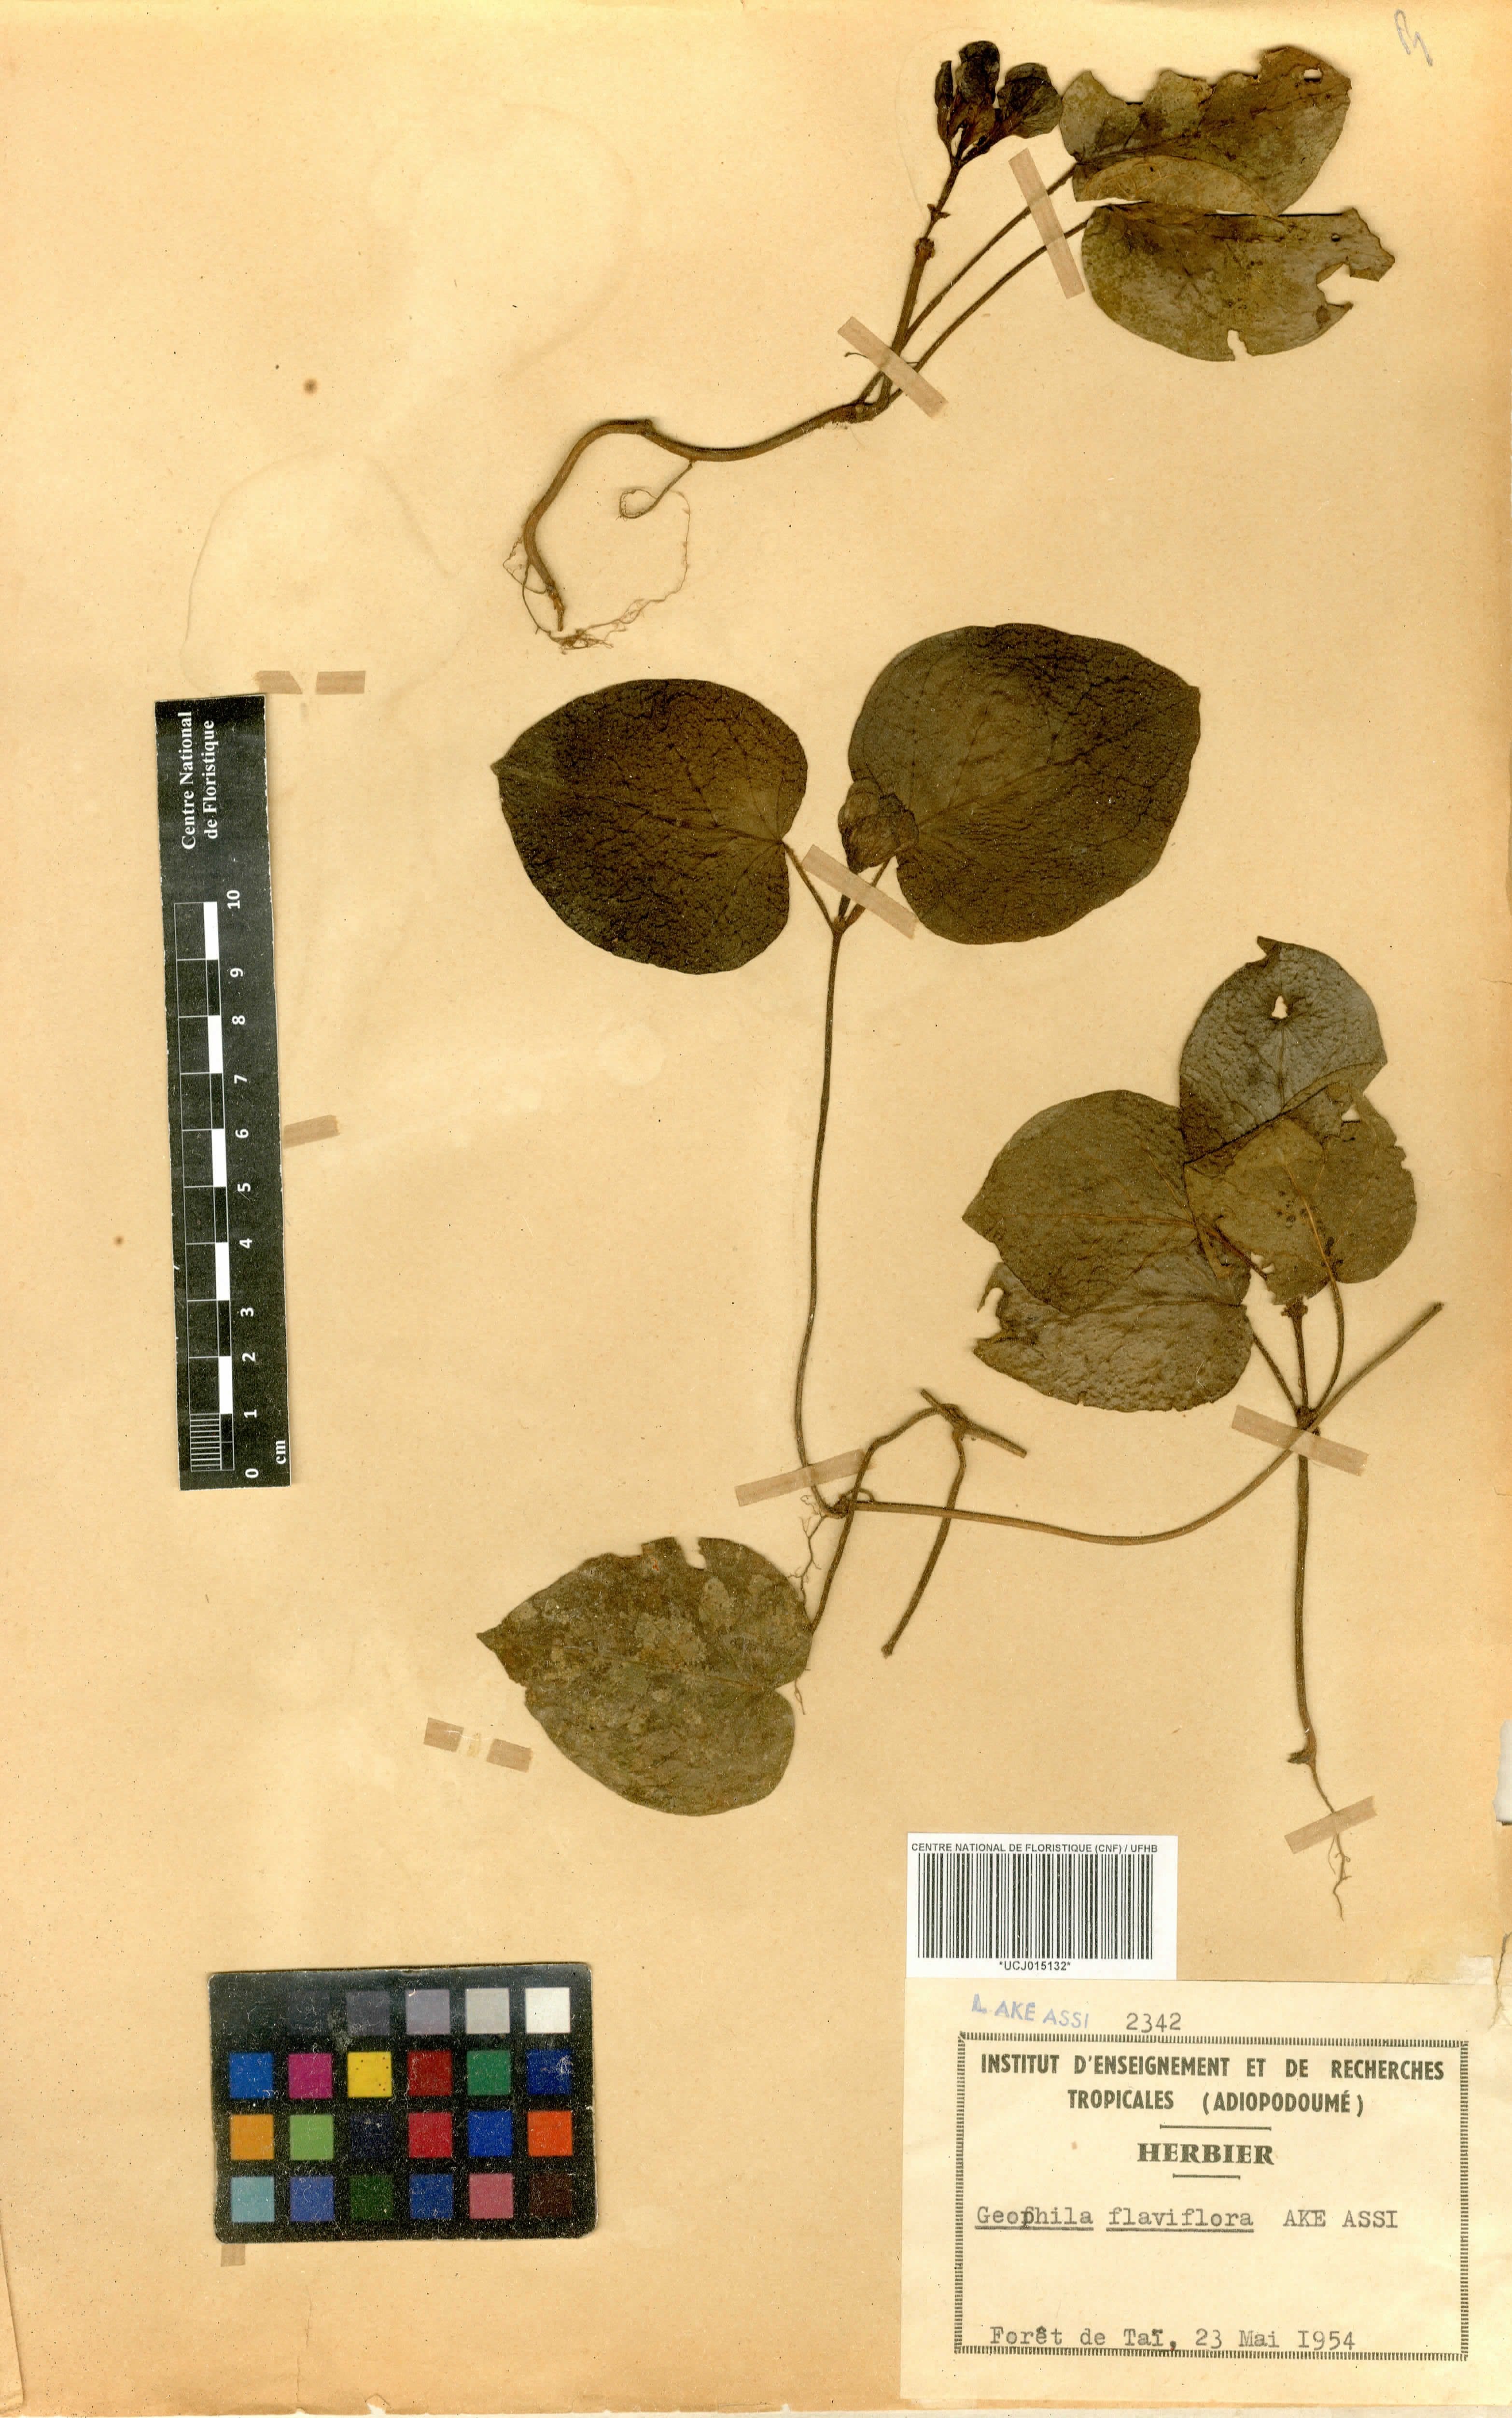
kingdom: Plantae
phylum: Tracheophyta
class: Magnoliopsida
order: Gentianales
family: Rubiaceae
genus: Geophila
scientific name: Geophila flaviflora
